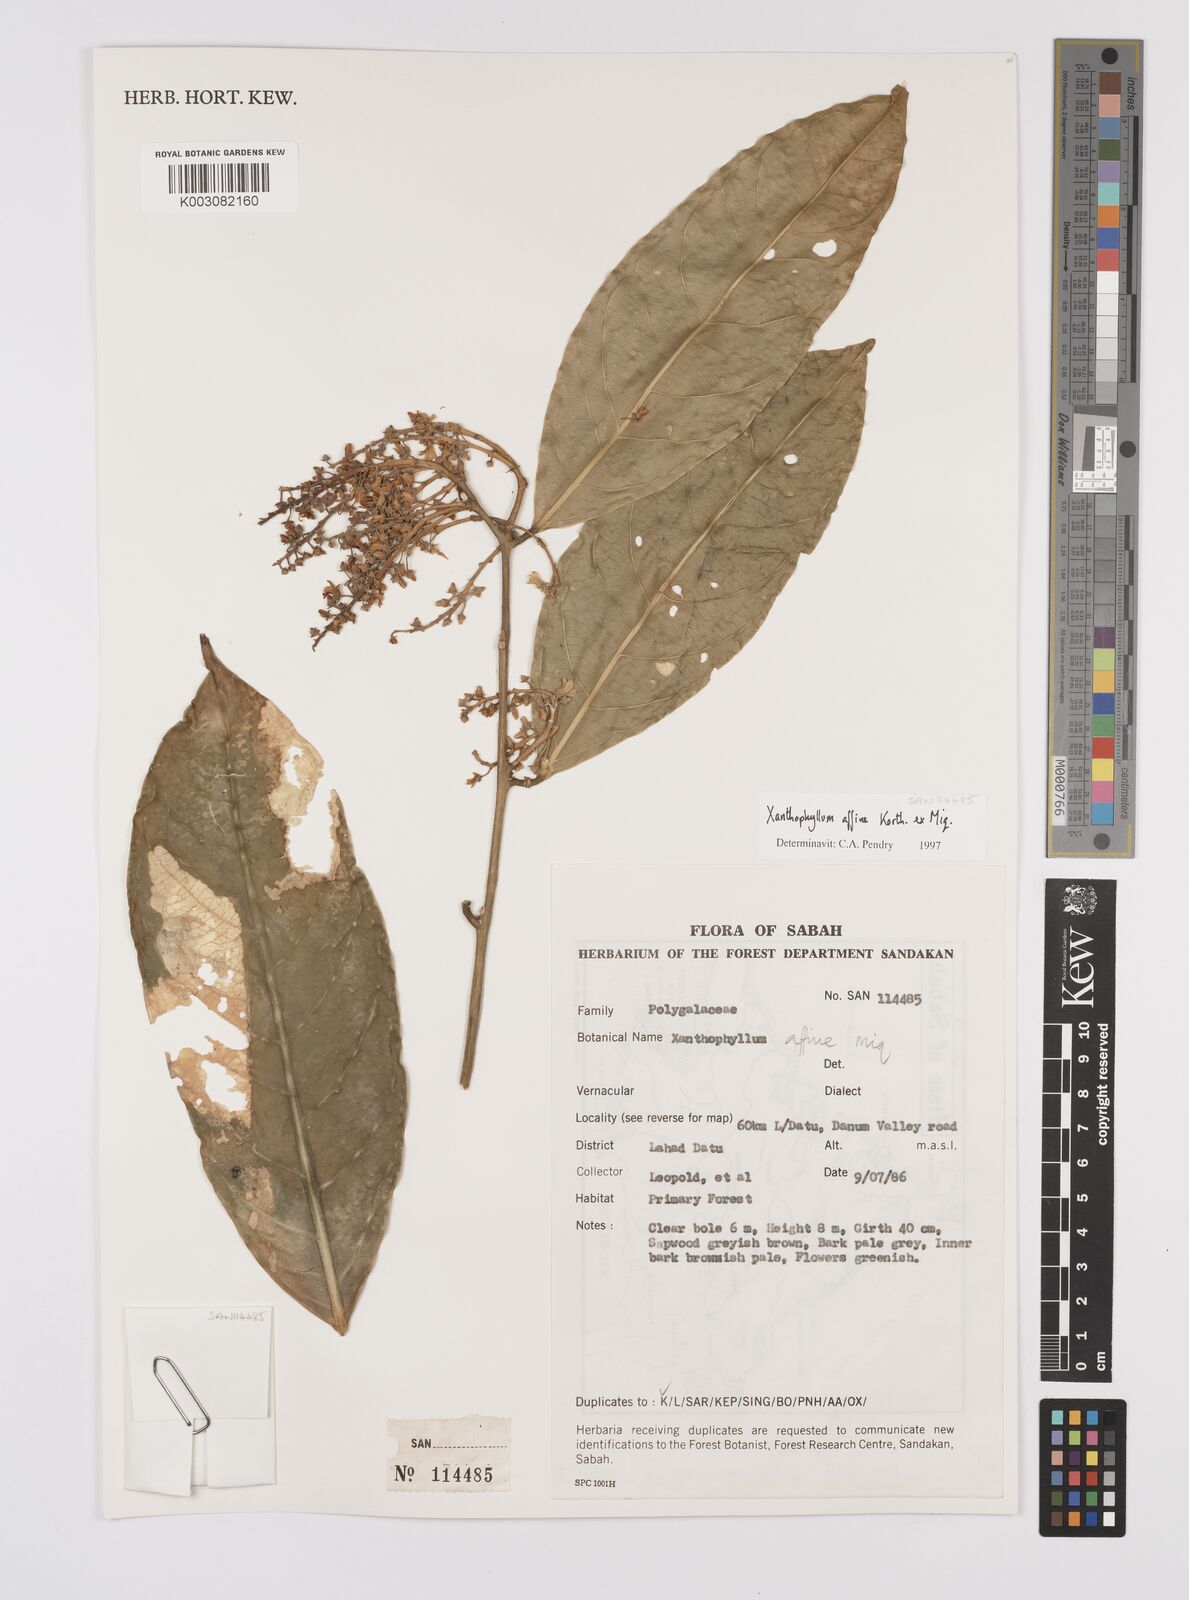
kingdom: Plantae
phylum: Tracheophyta
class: Magnoliopsida
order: Fabales
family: Polygalaceae
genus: Xanthophyllum
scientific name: Xanthophyllum flavescens
